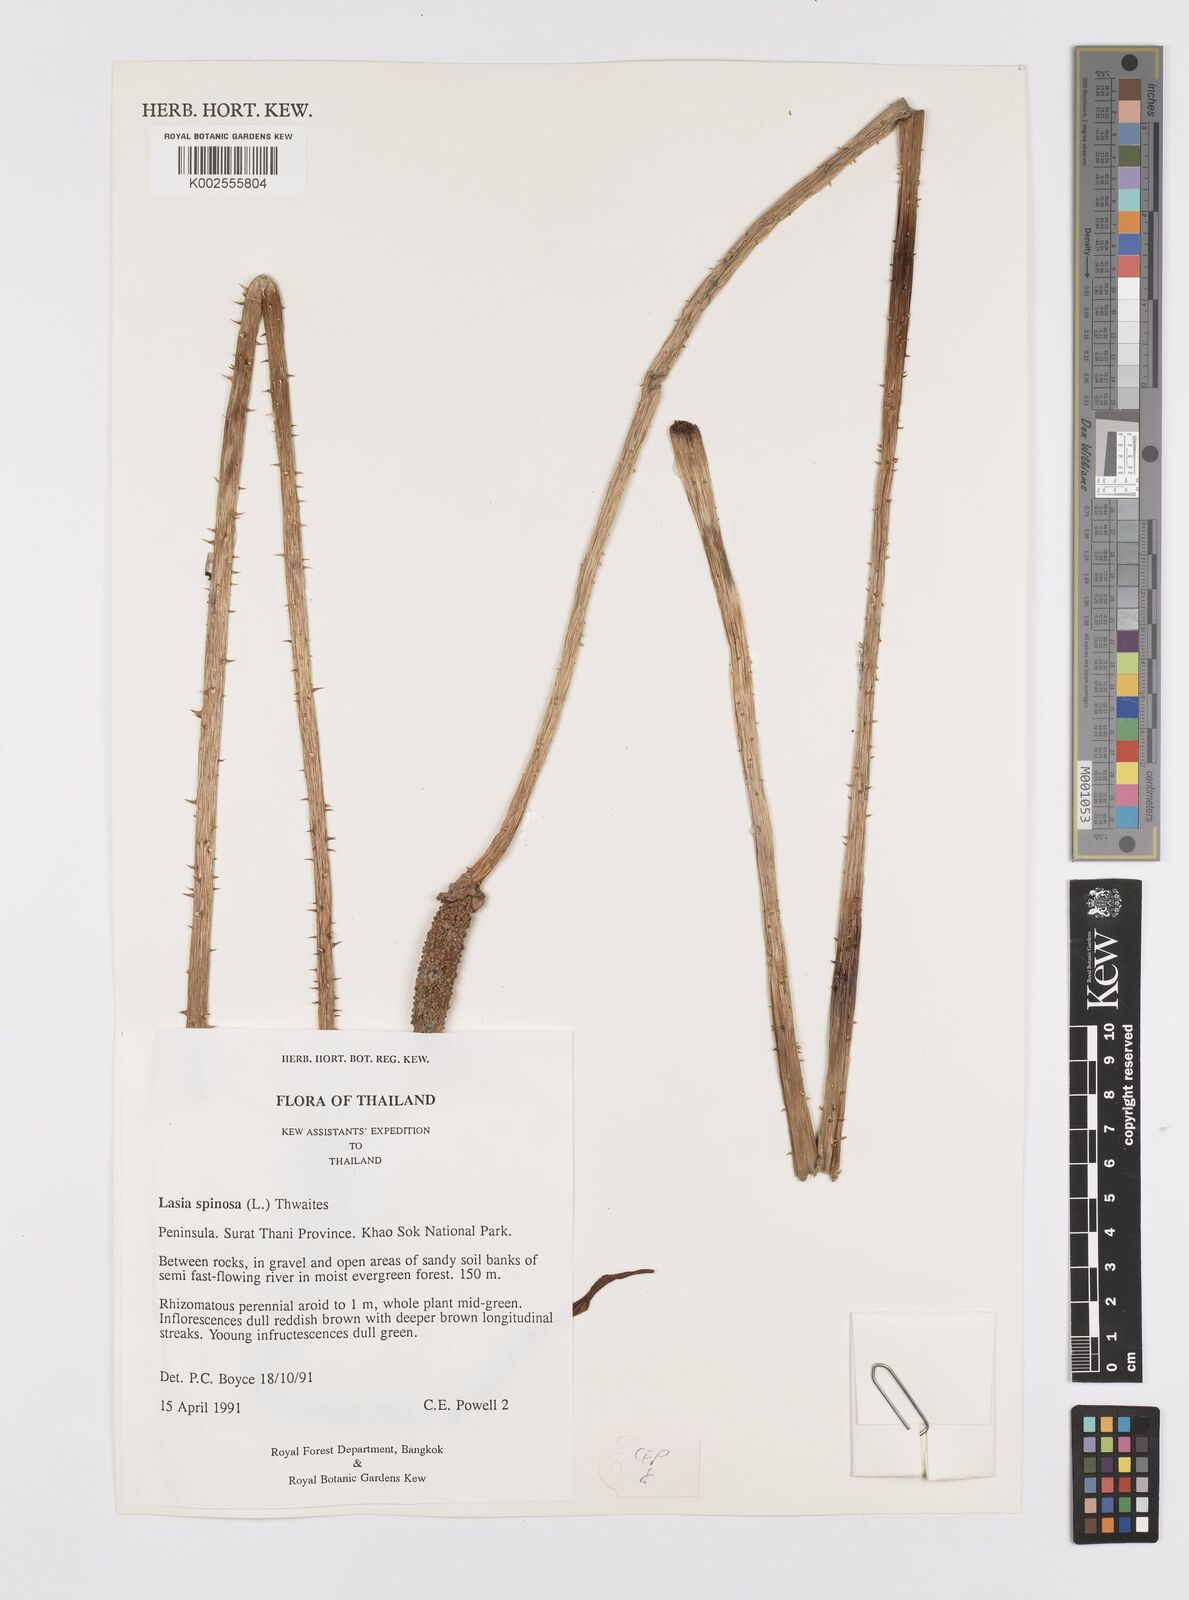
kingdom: Plantae
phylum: Tracheophyta
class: Liliopsida
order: Alismatales
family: Araceae
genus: Lasia
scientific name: Lasia spinosa
